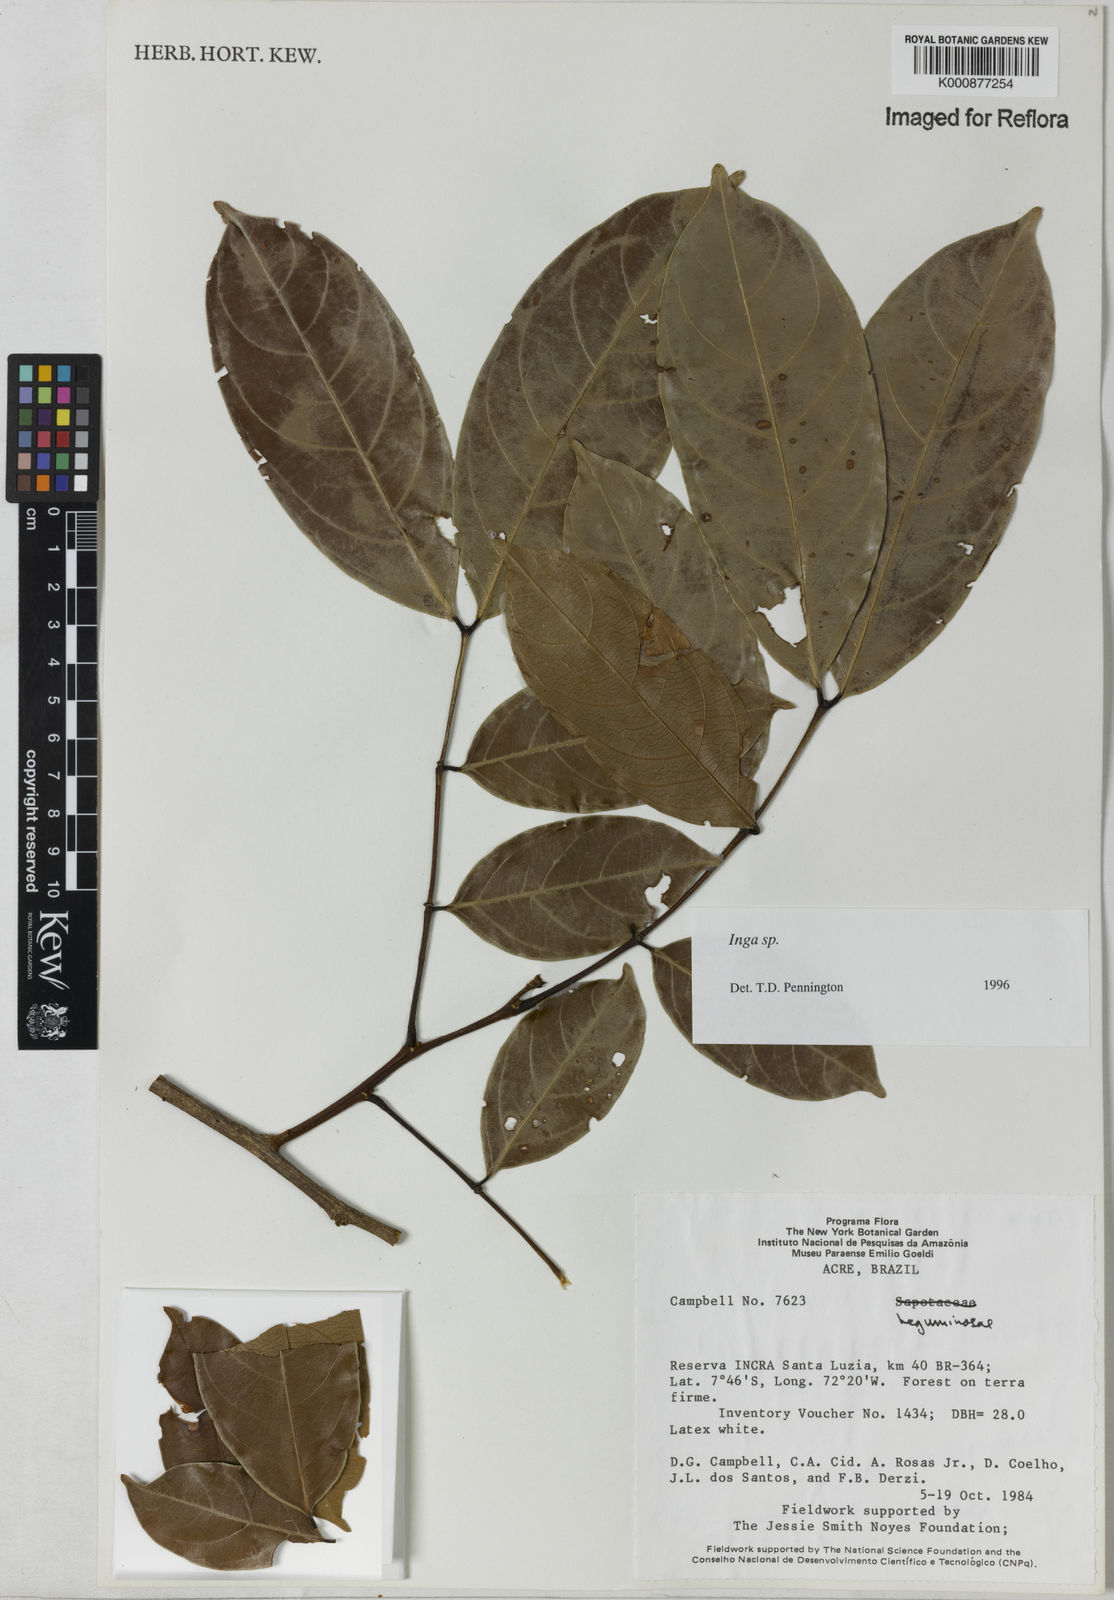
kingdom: Plantae
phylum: Tracheophyta
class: Magnoliopsida
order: Fabales
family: Fabaceae
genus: Inga
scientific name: Inga
